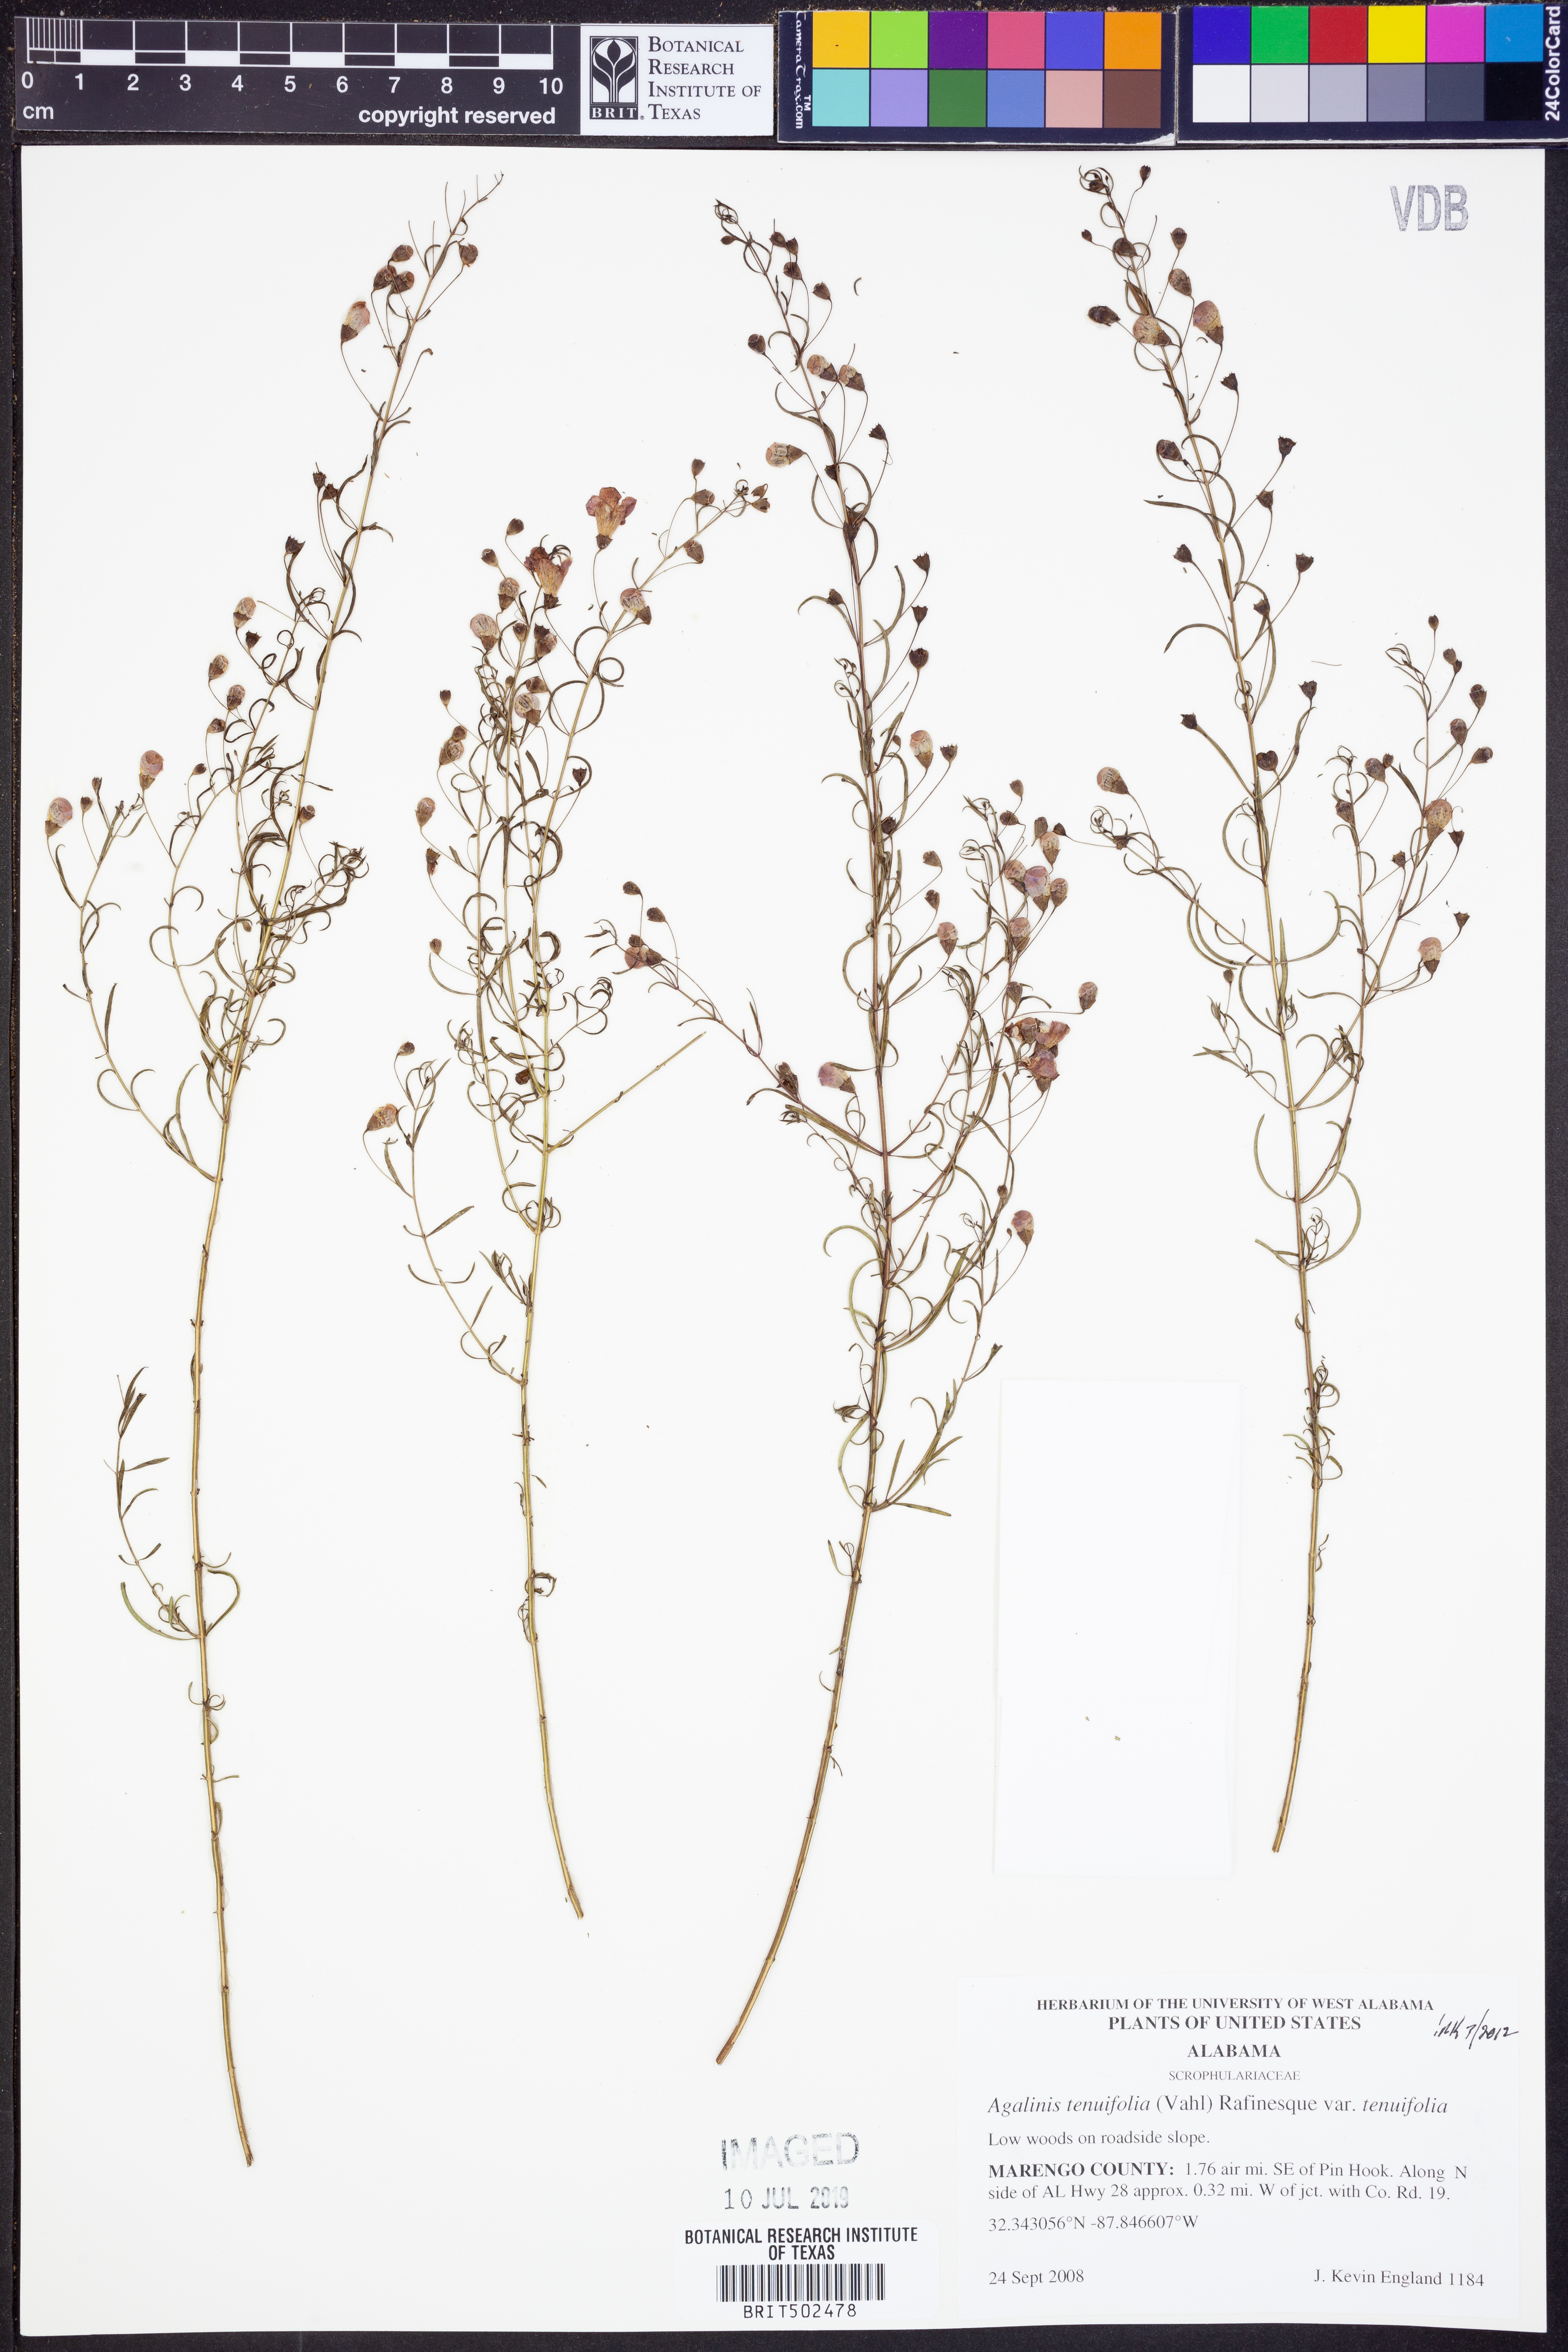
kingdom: Plantae
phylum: Tracheophyta
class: Magnoliopsida
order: Lamiales
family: Orobanchaceae
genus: Agalinis
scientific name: Agalinis tenuifolia
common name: Slender agalinis
